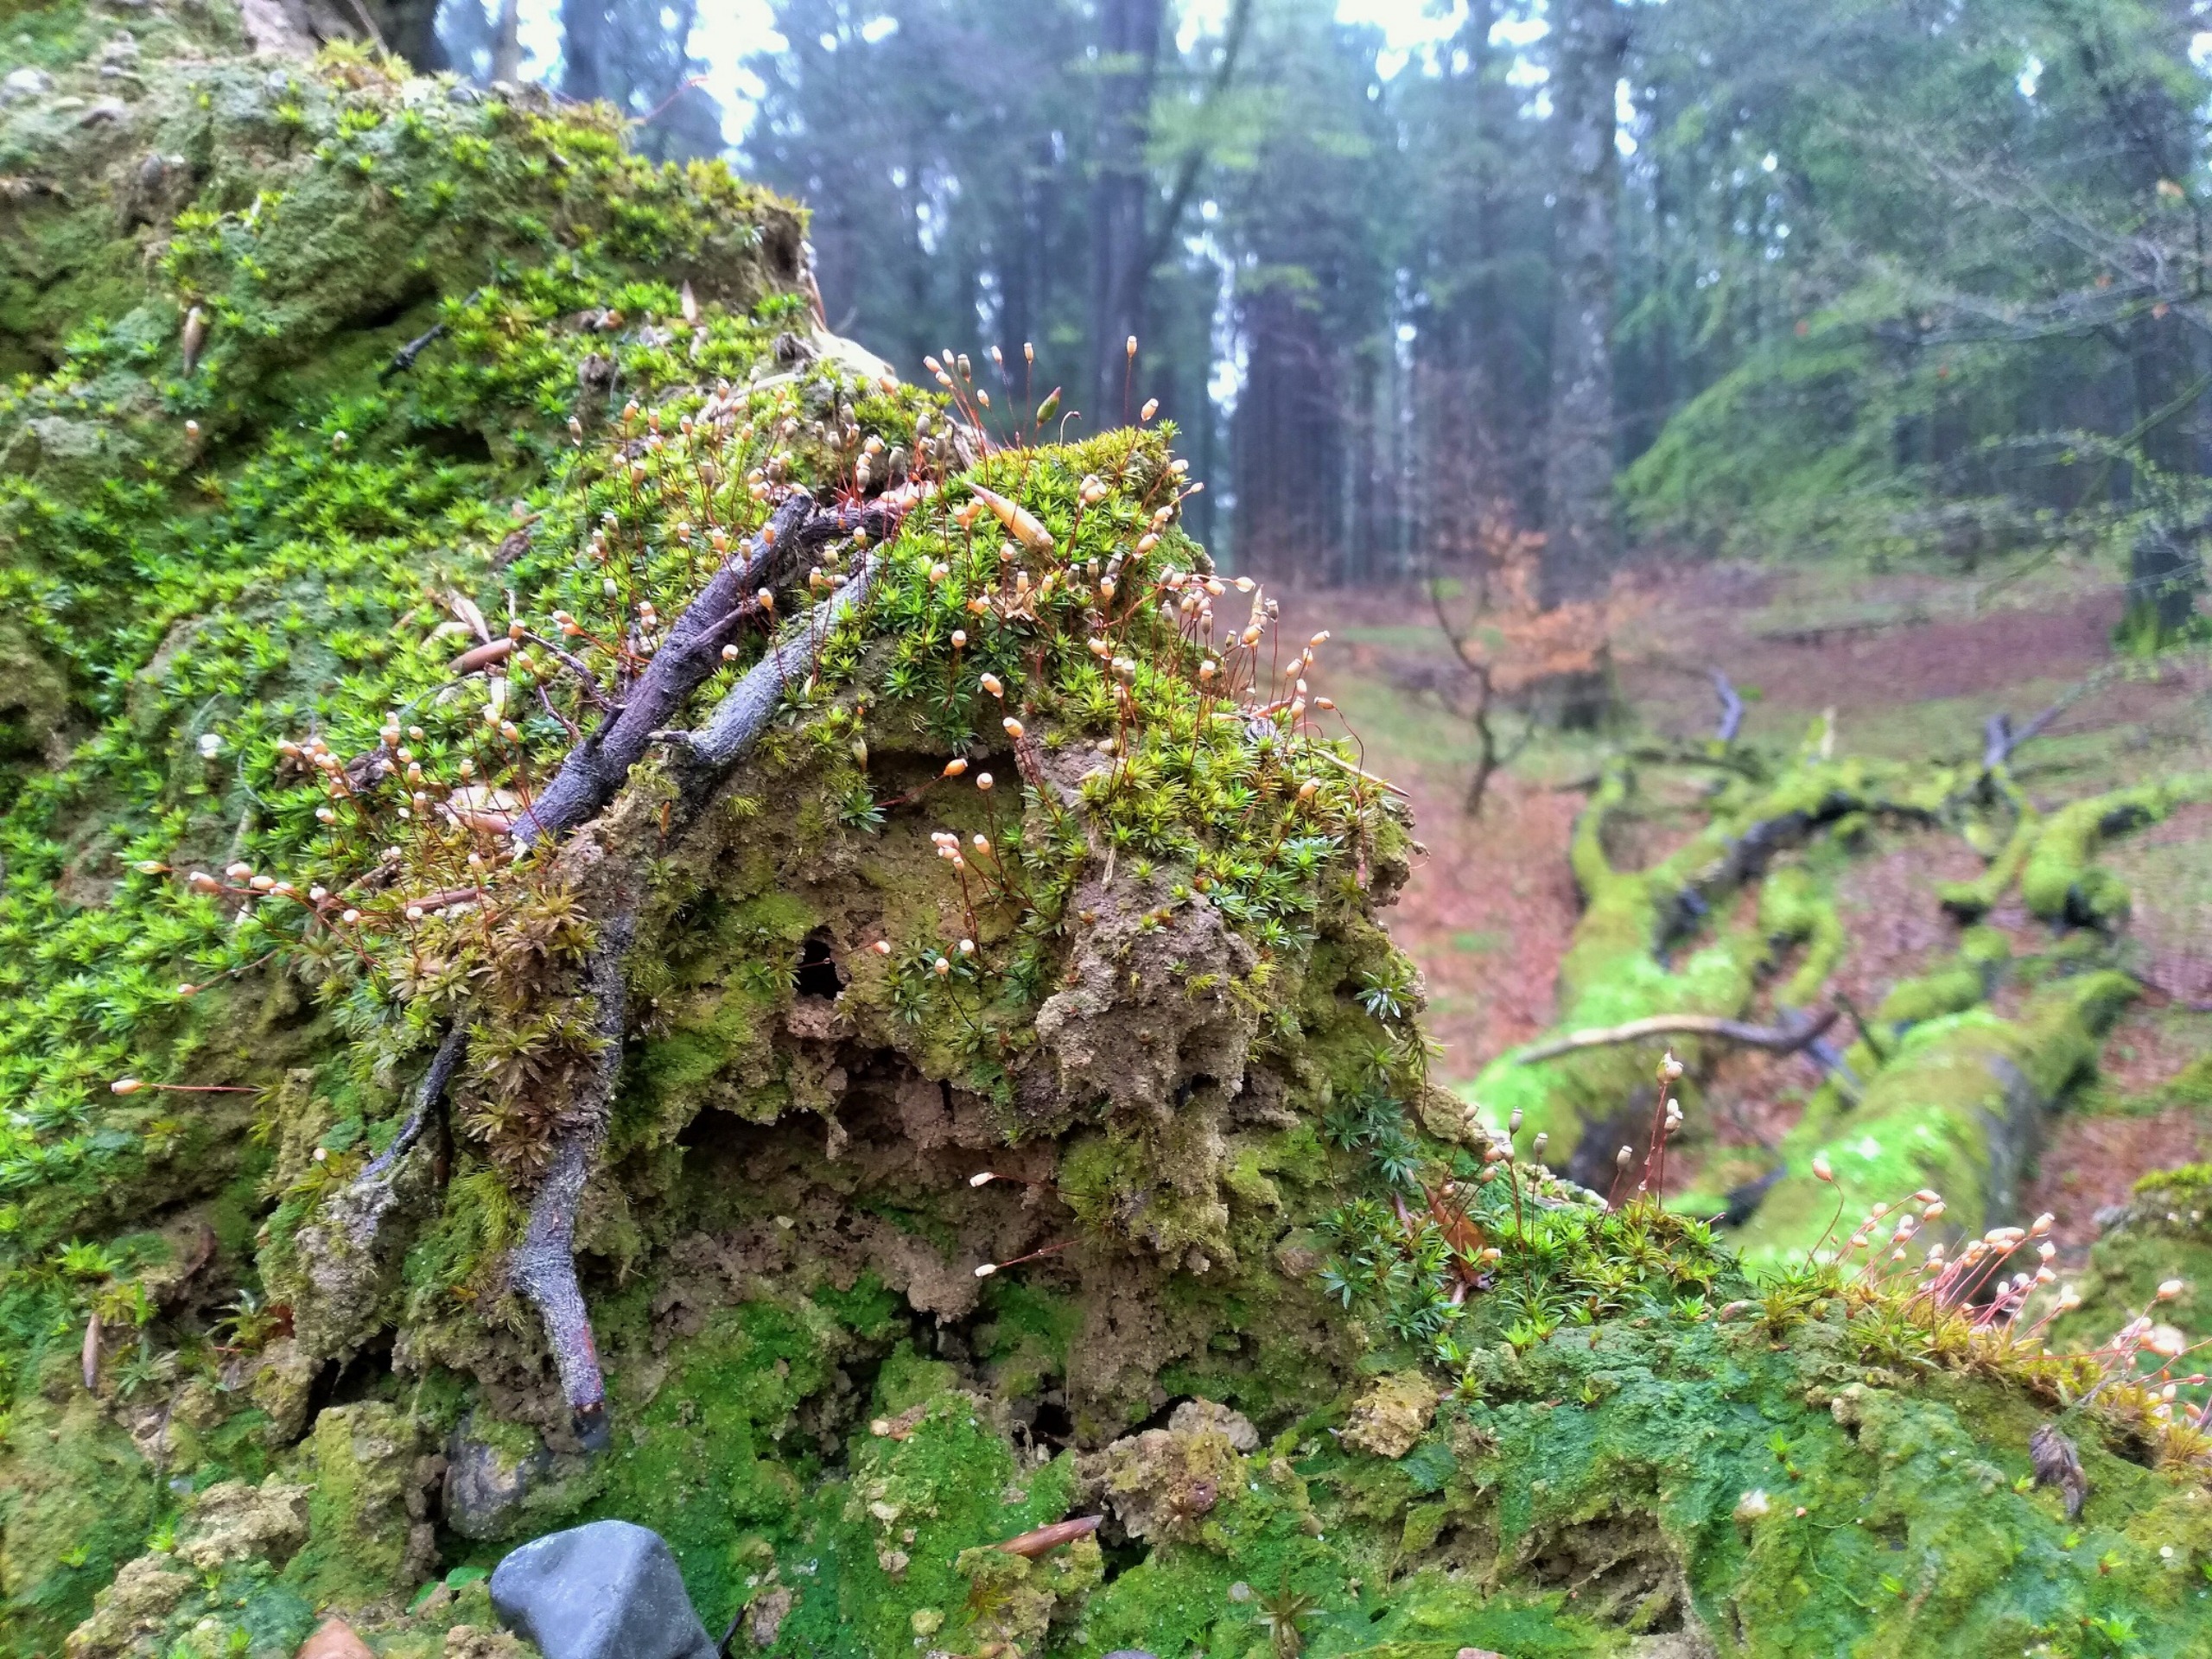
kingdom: Plantae
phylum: Bryophyta
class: Polytrichopsida
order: Polytrichales
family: Polytrichaceae
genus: Pogonatum
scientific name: Pogonatum aloides
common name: Smal urnekapsel
